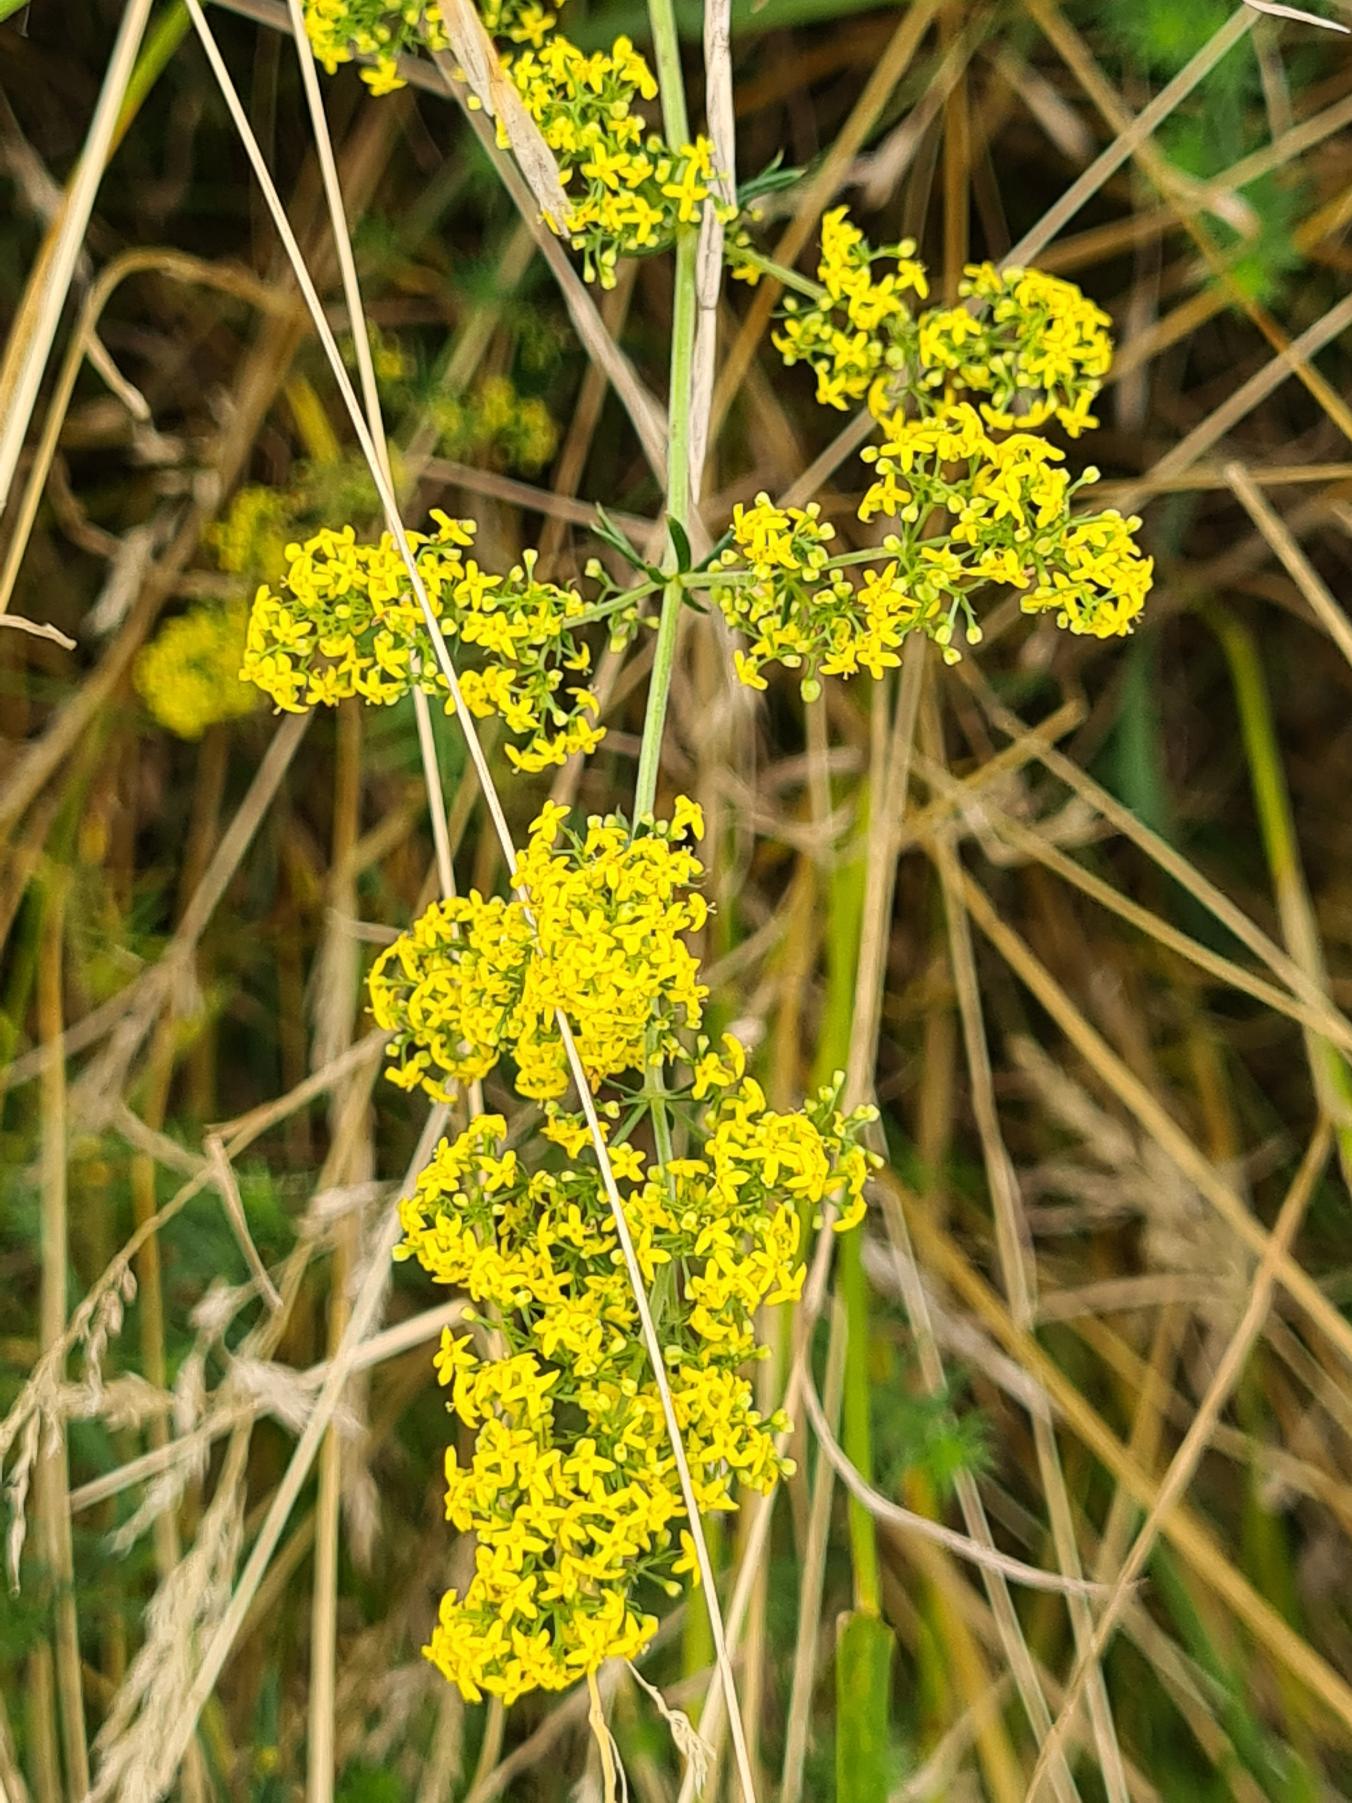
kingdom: Plantae
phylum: Tracheophyta
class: Magnoliopsida
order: Gentianales
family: Rubiaceae
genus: Galium
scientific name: Galium verum
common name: Gul snerre
